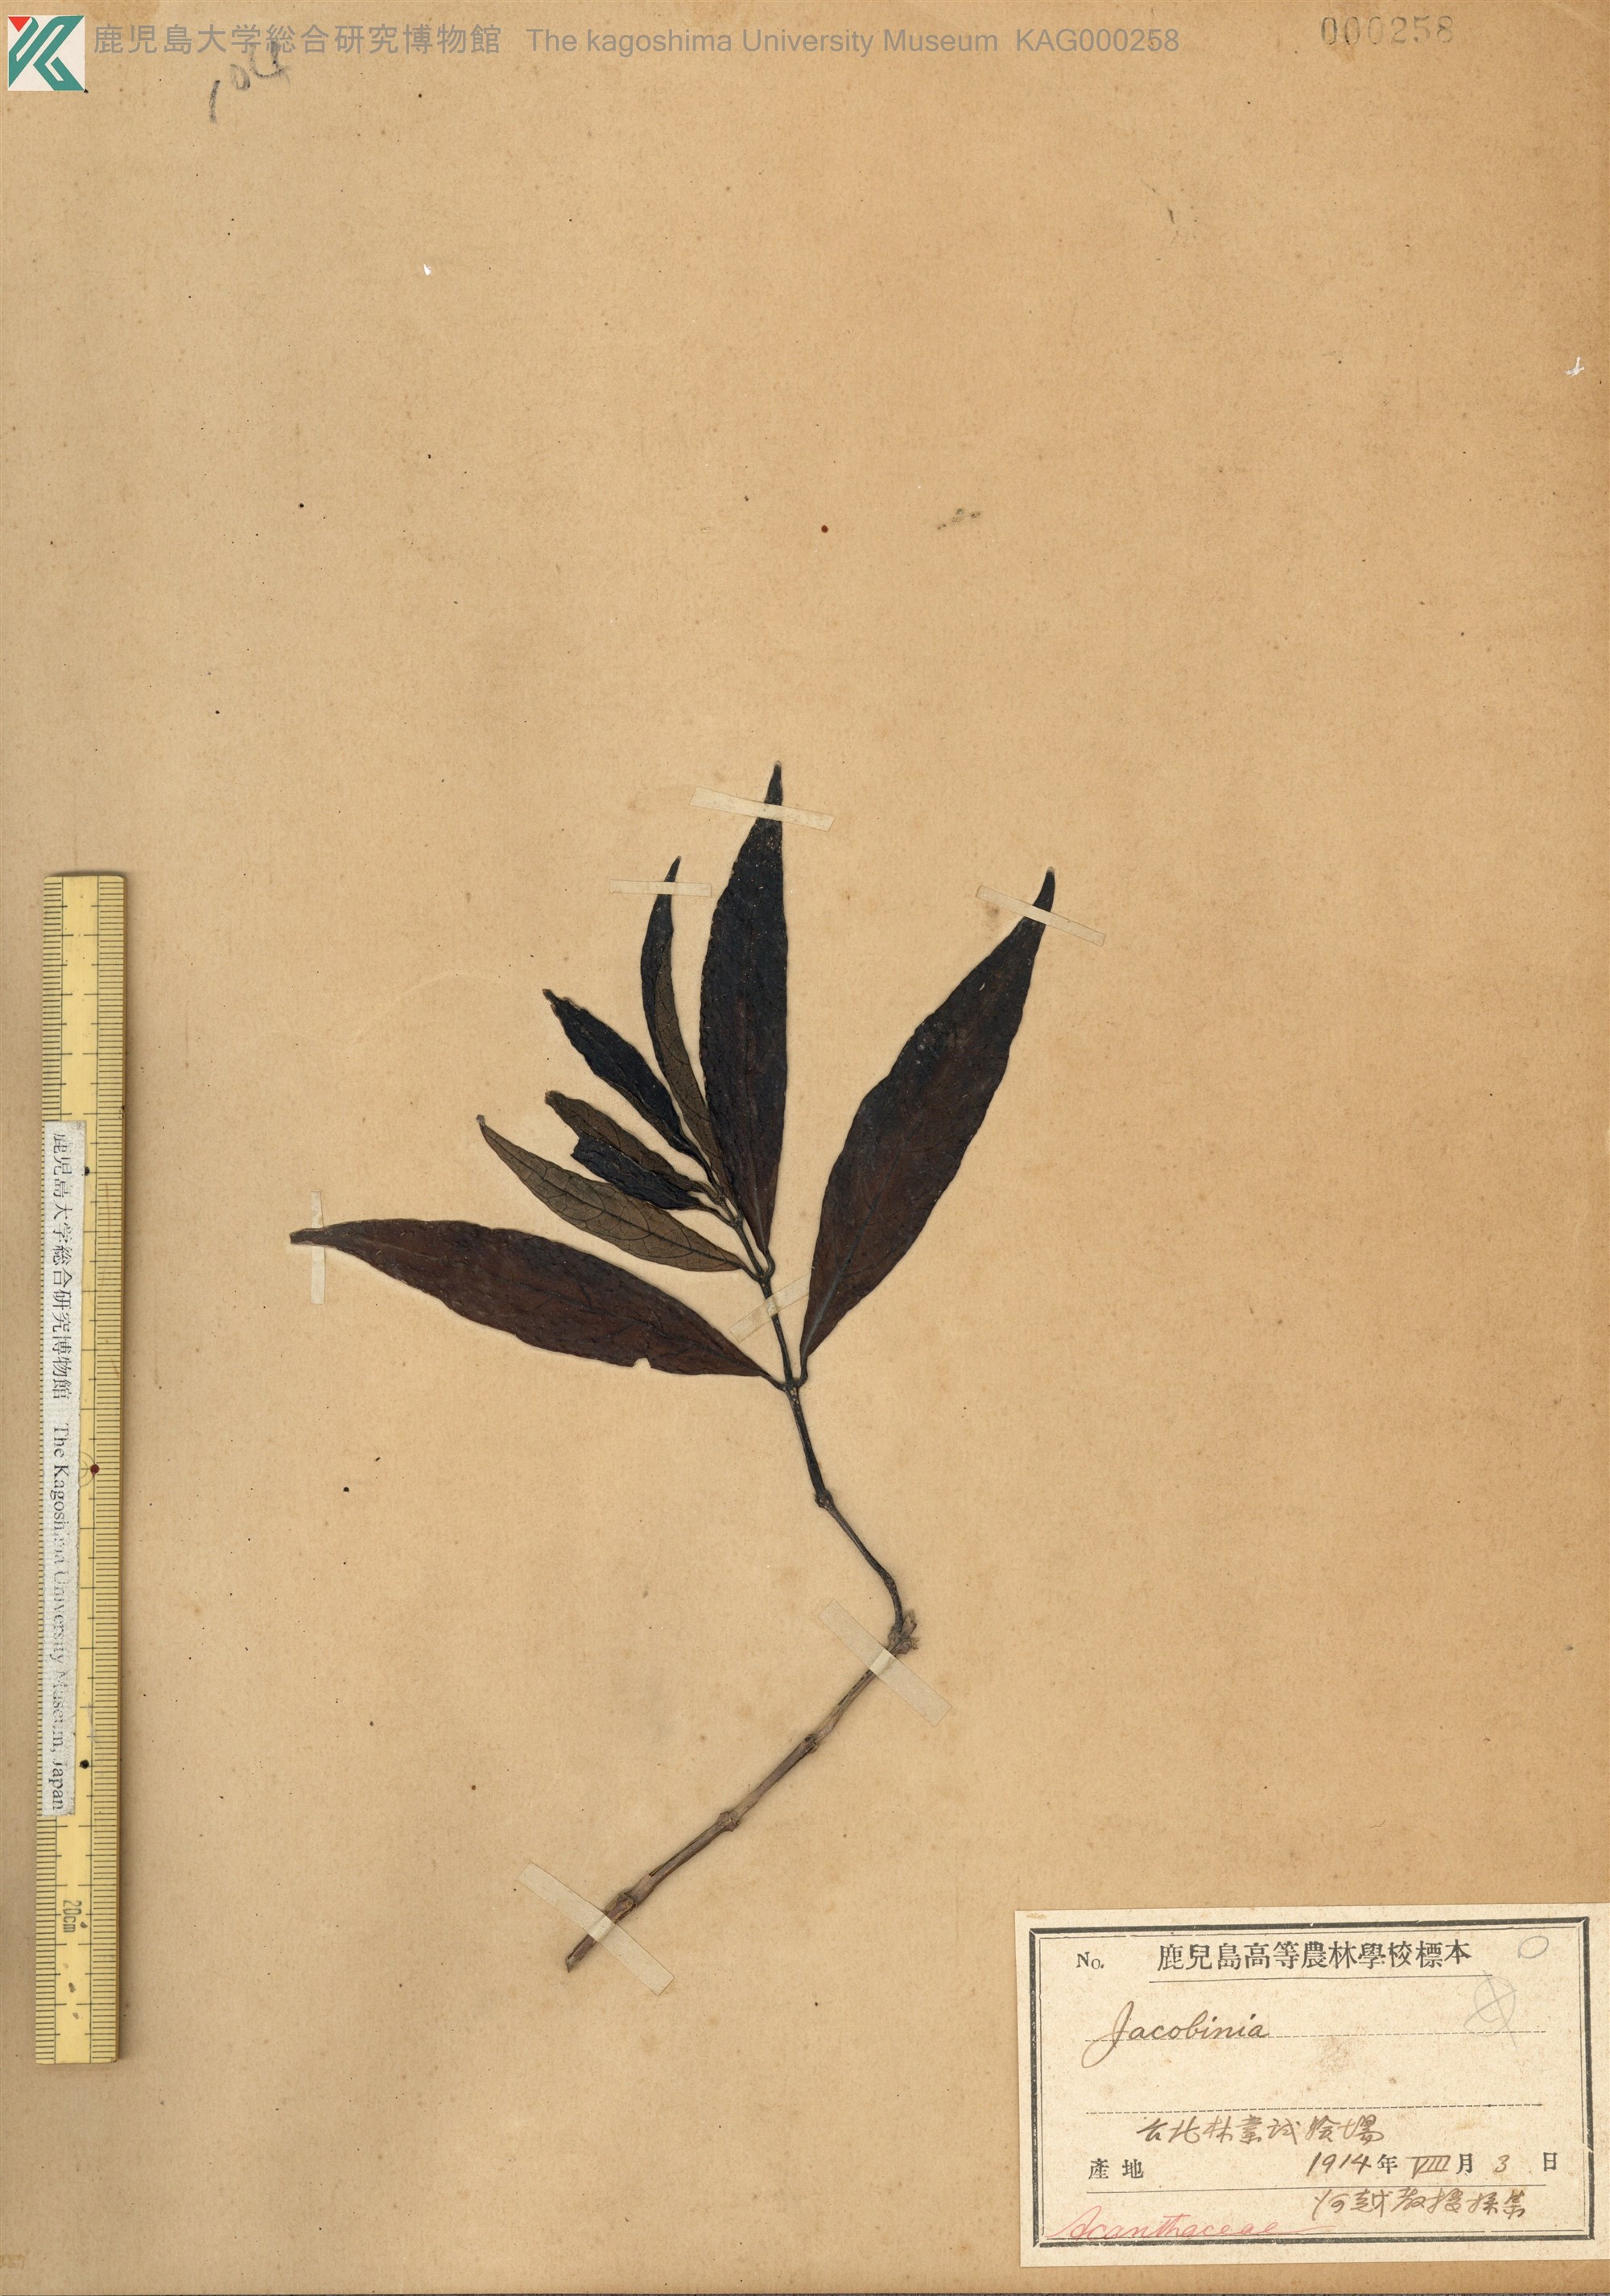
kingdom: Plantae
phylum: Tracheophyta
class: Magnoliopsida
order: Lamiales
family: Acanthaceae
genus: Justicia
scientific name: Justicia
